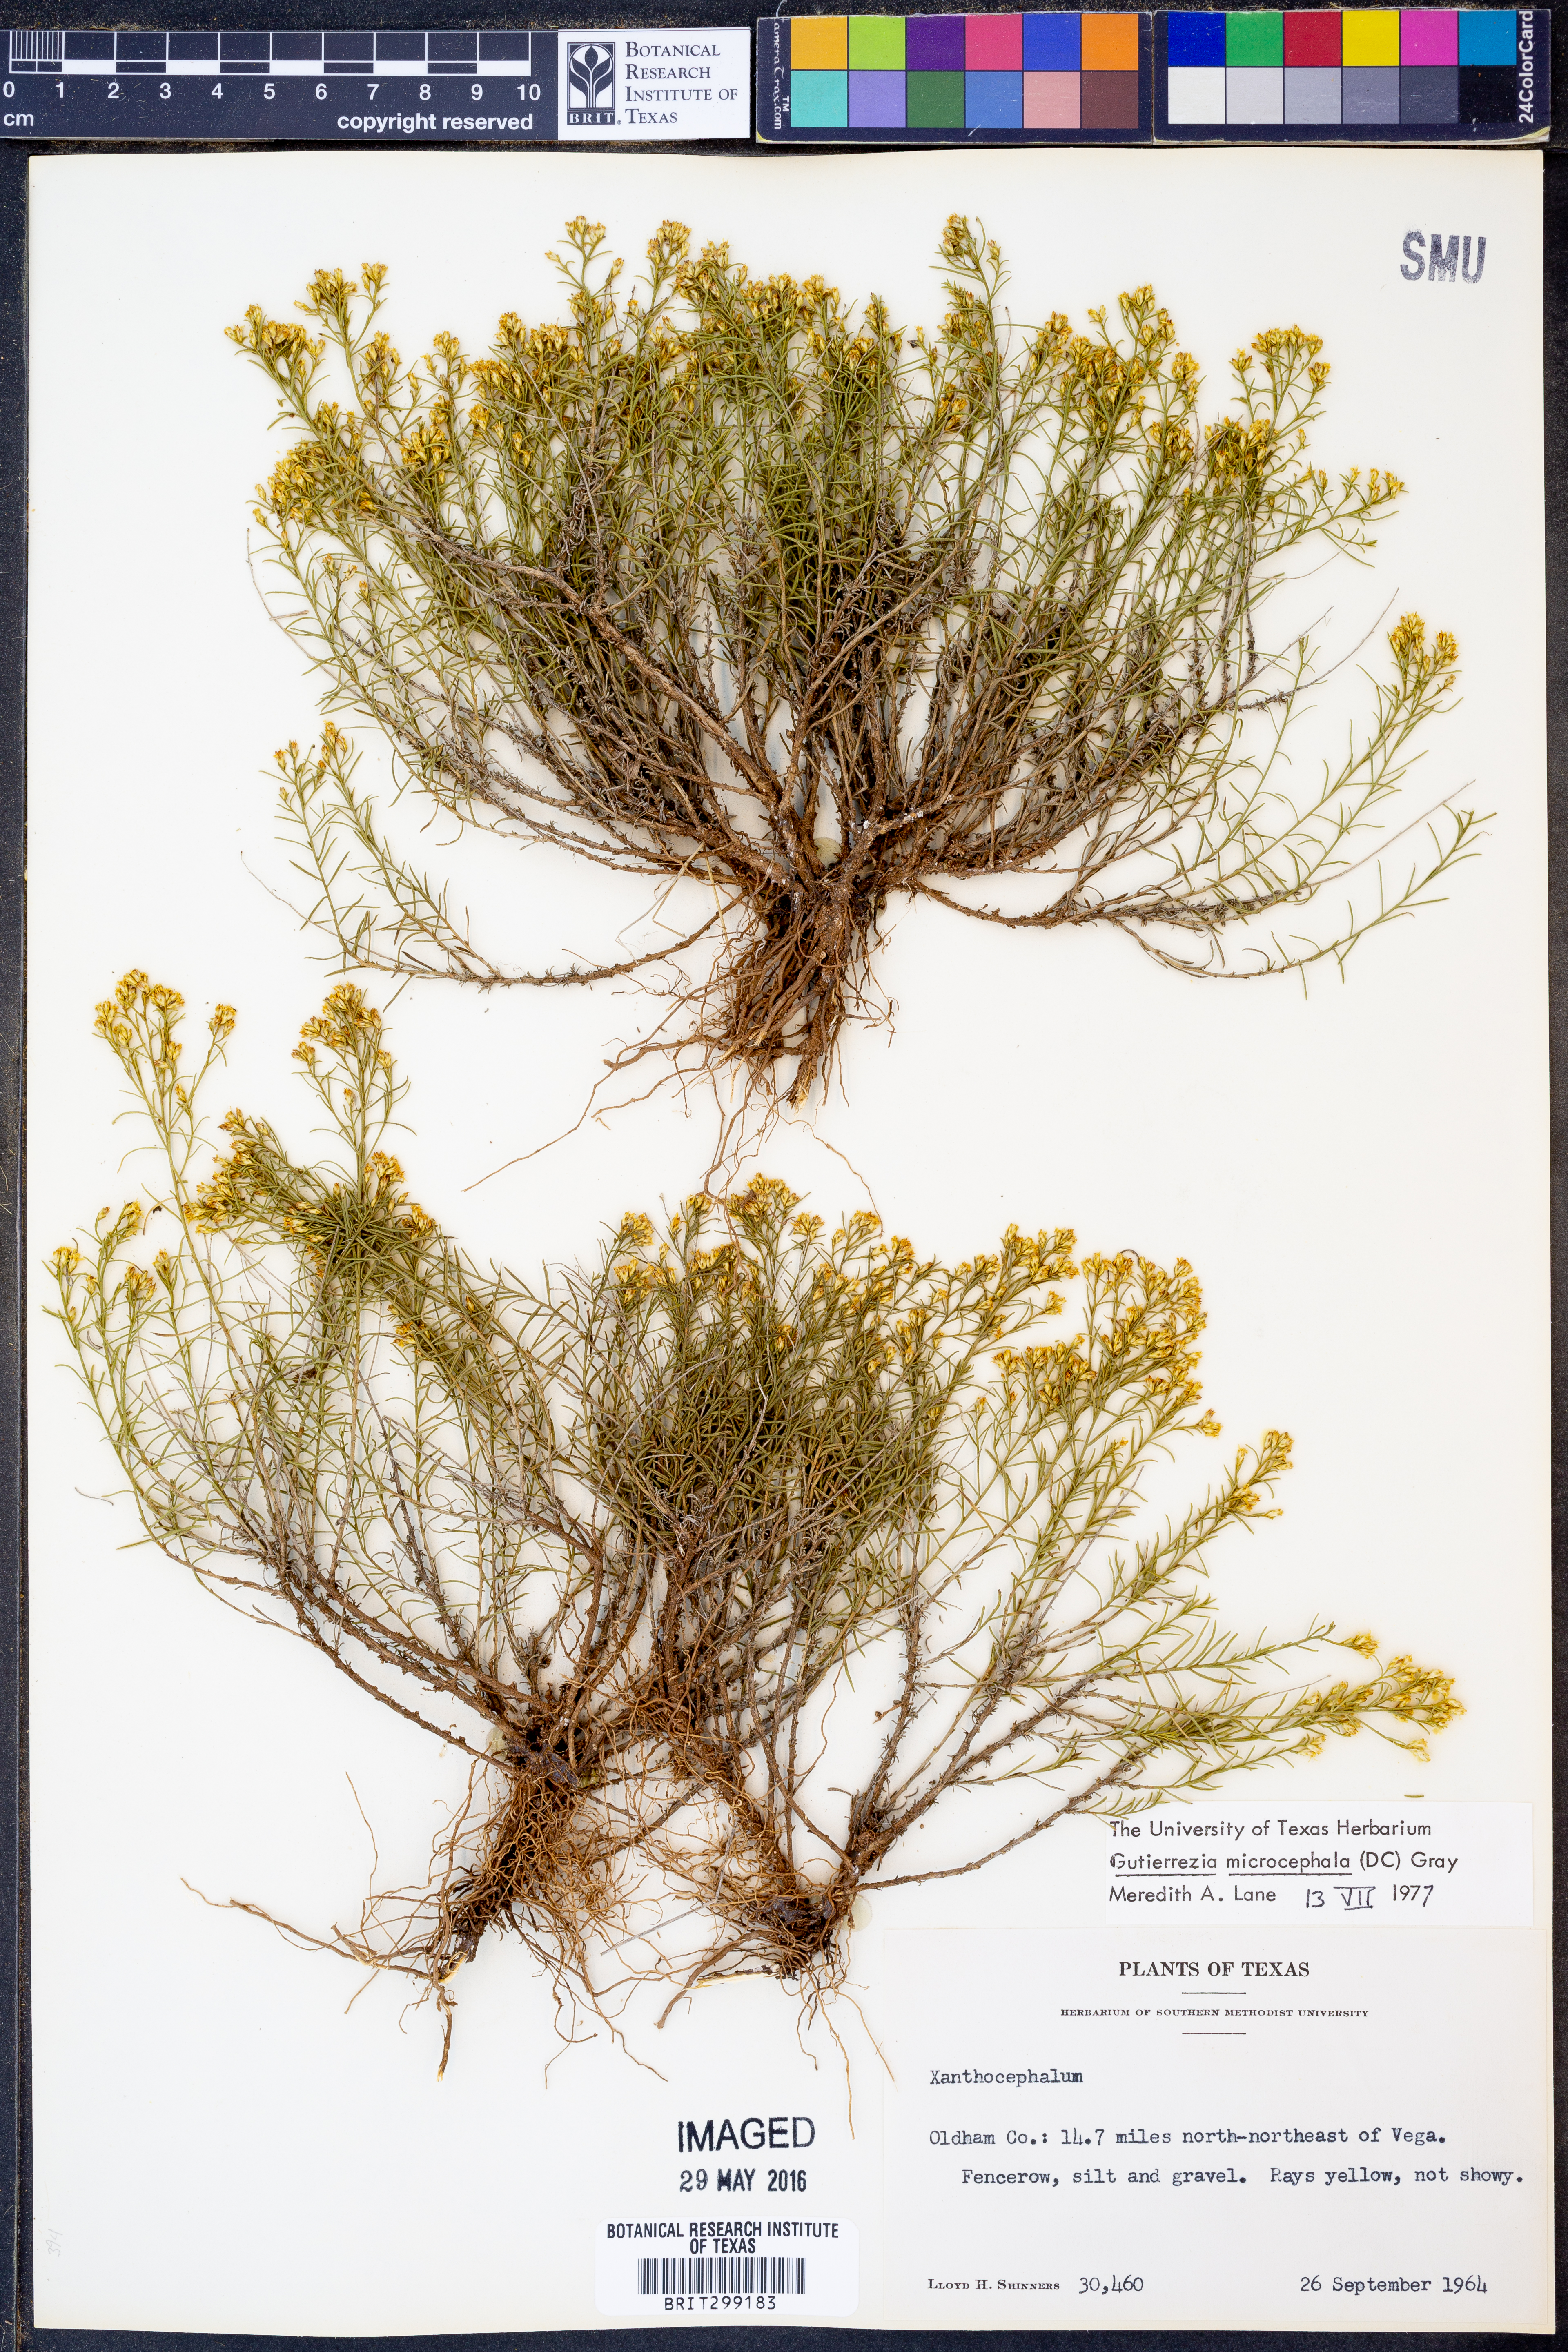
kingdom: Plantae
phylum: Tracheophyta
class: Magnoliopsida
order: Asterales
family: Asteraceae
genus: Gutierrezia
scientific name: Gutierrezia microcephala
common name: Thread snakeweed
